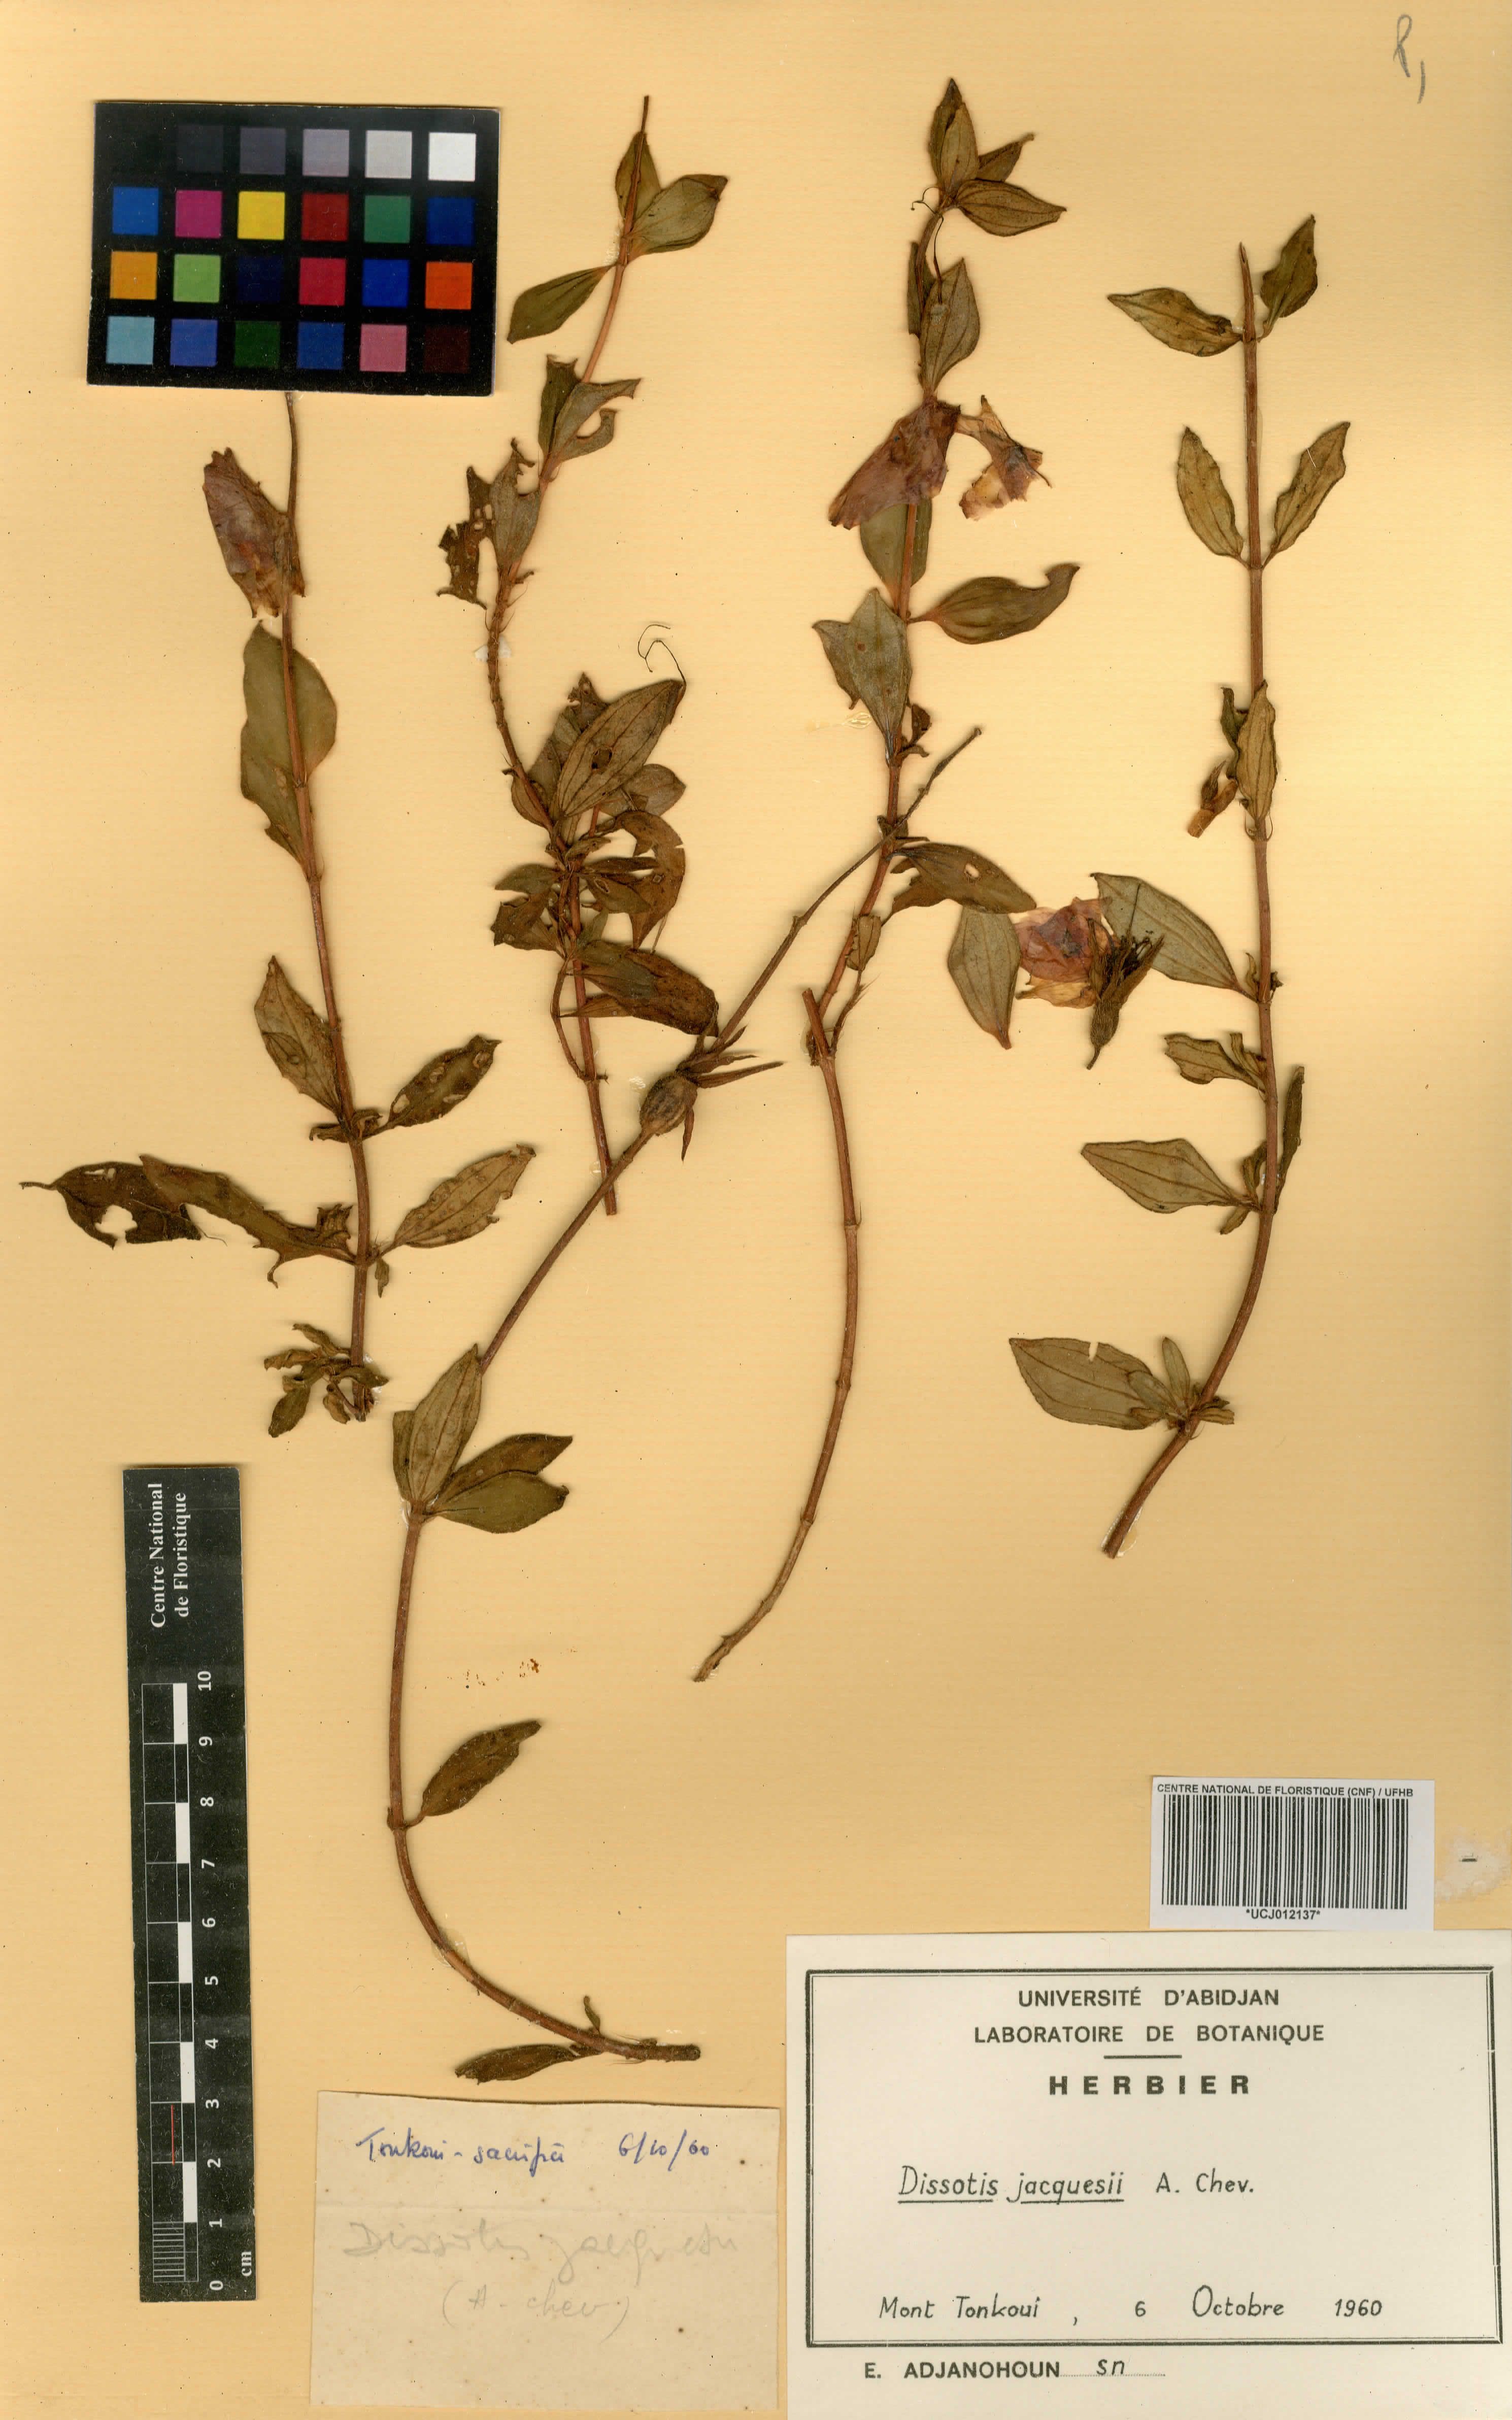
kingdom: Plantae
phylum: Tracheophyta
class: Magnoliopsida
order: Myrtales
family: Melastomataceae
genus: Guyonia
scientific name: Guyonia jacquesii
